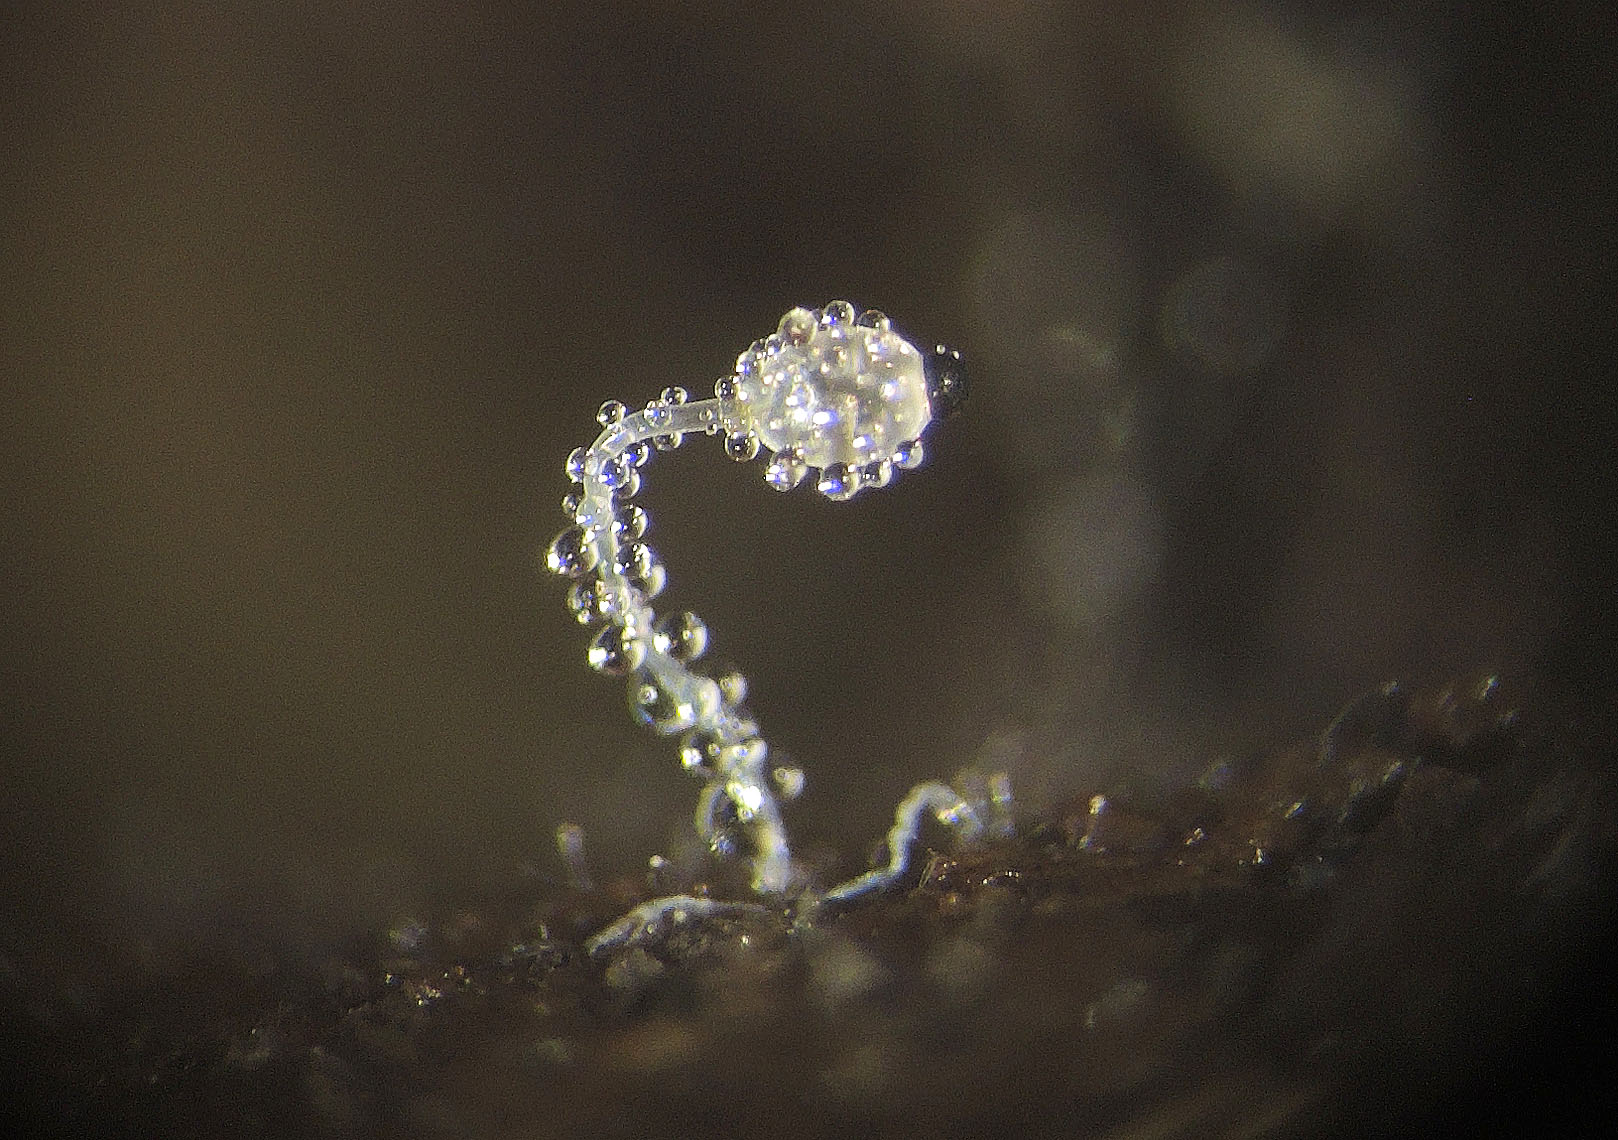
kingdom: Fungi
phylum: Mucoromycota
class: Mucoromycetes
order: Mucorales
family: Pilobolaceae
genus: Pilobolus
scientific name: Pilobolus
